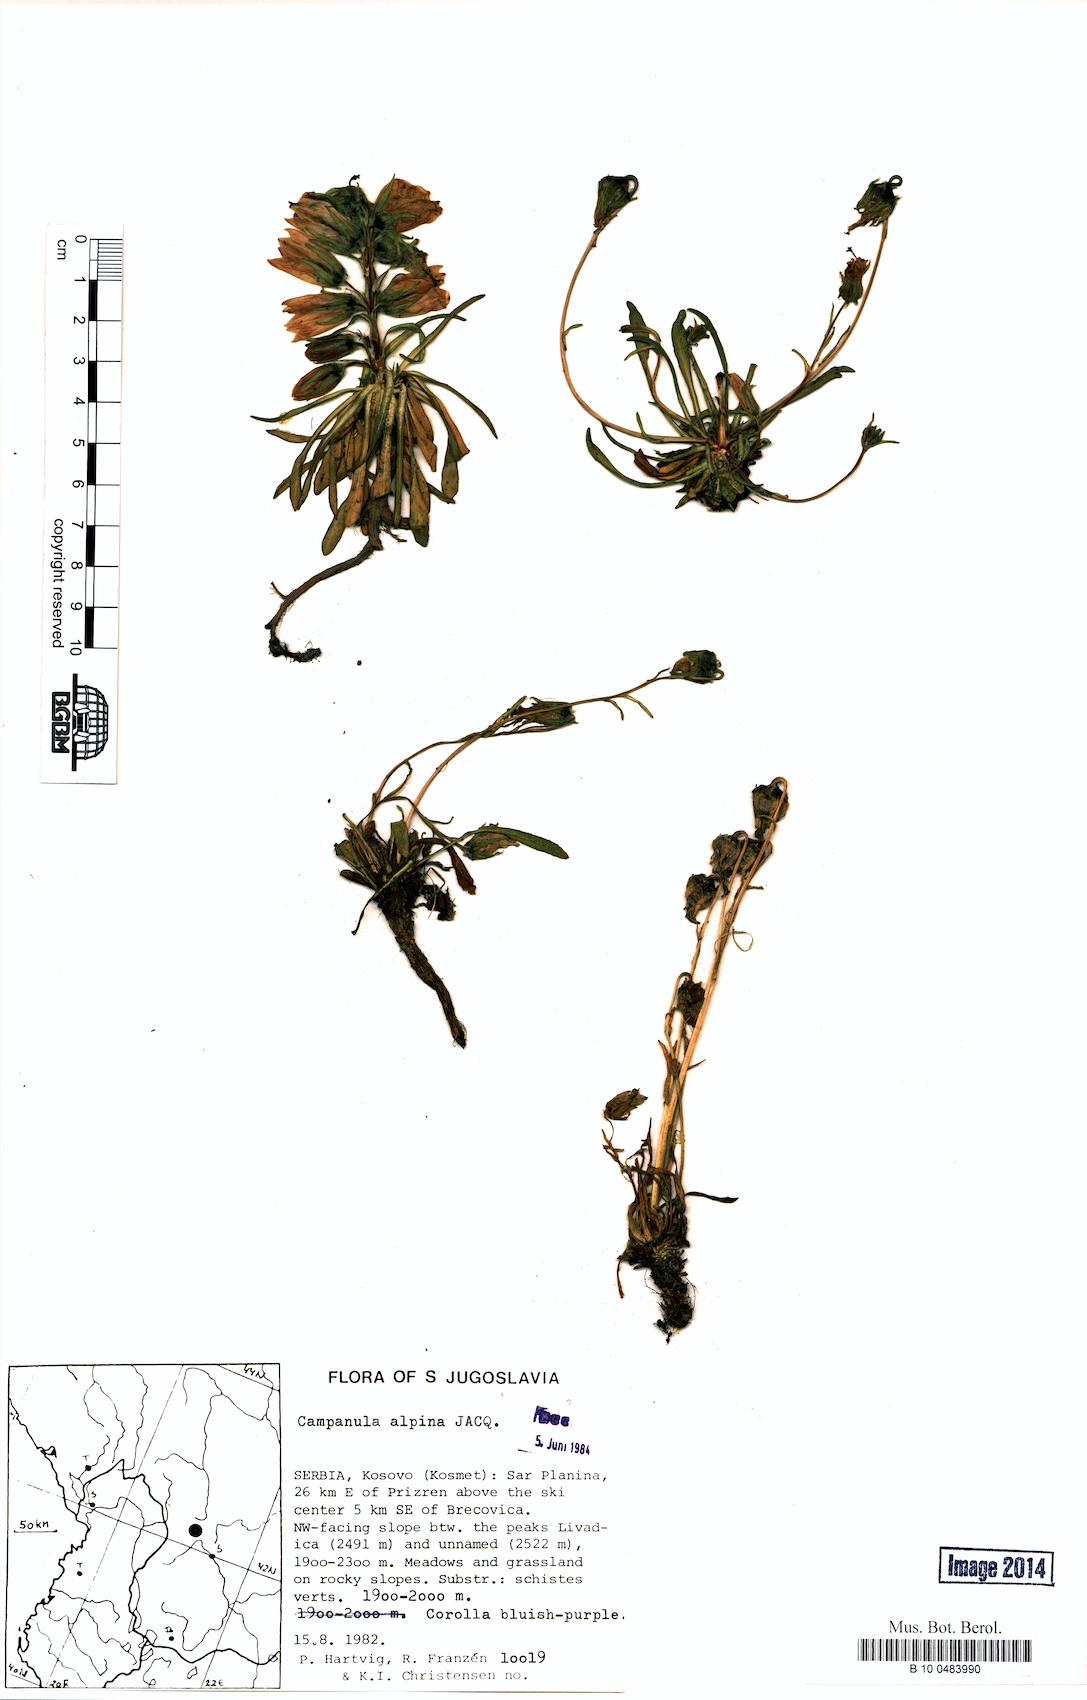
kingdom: Plantae
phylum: Tracheophyta
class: Magnoliopsida
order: Asterales
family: Campanulaceae
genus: Campanula
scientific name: Campanula alpina
